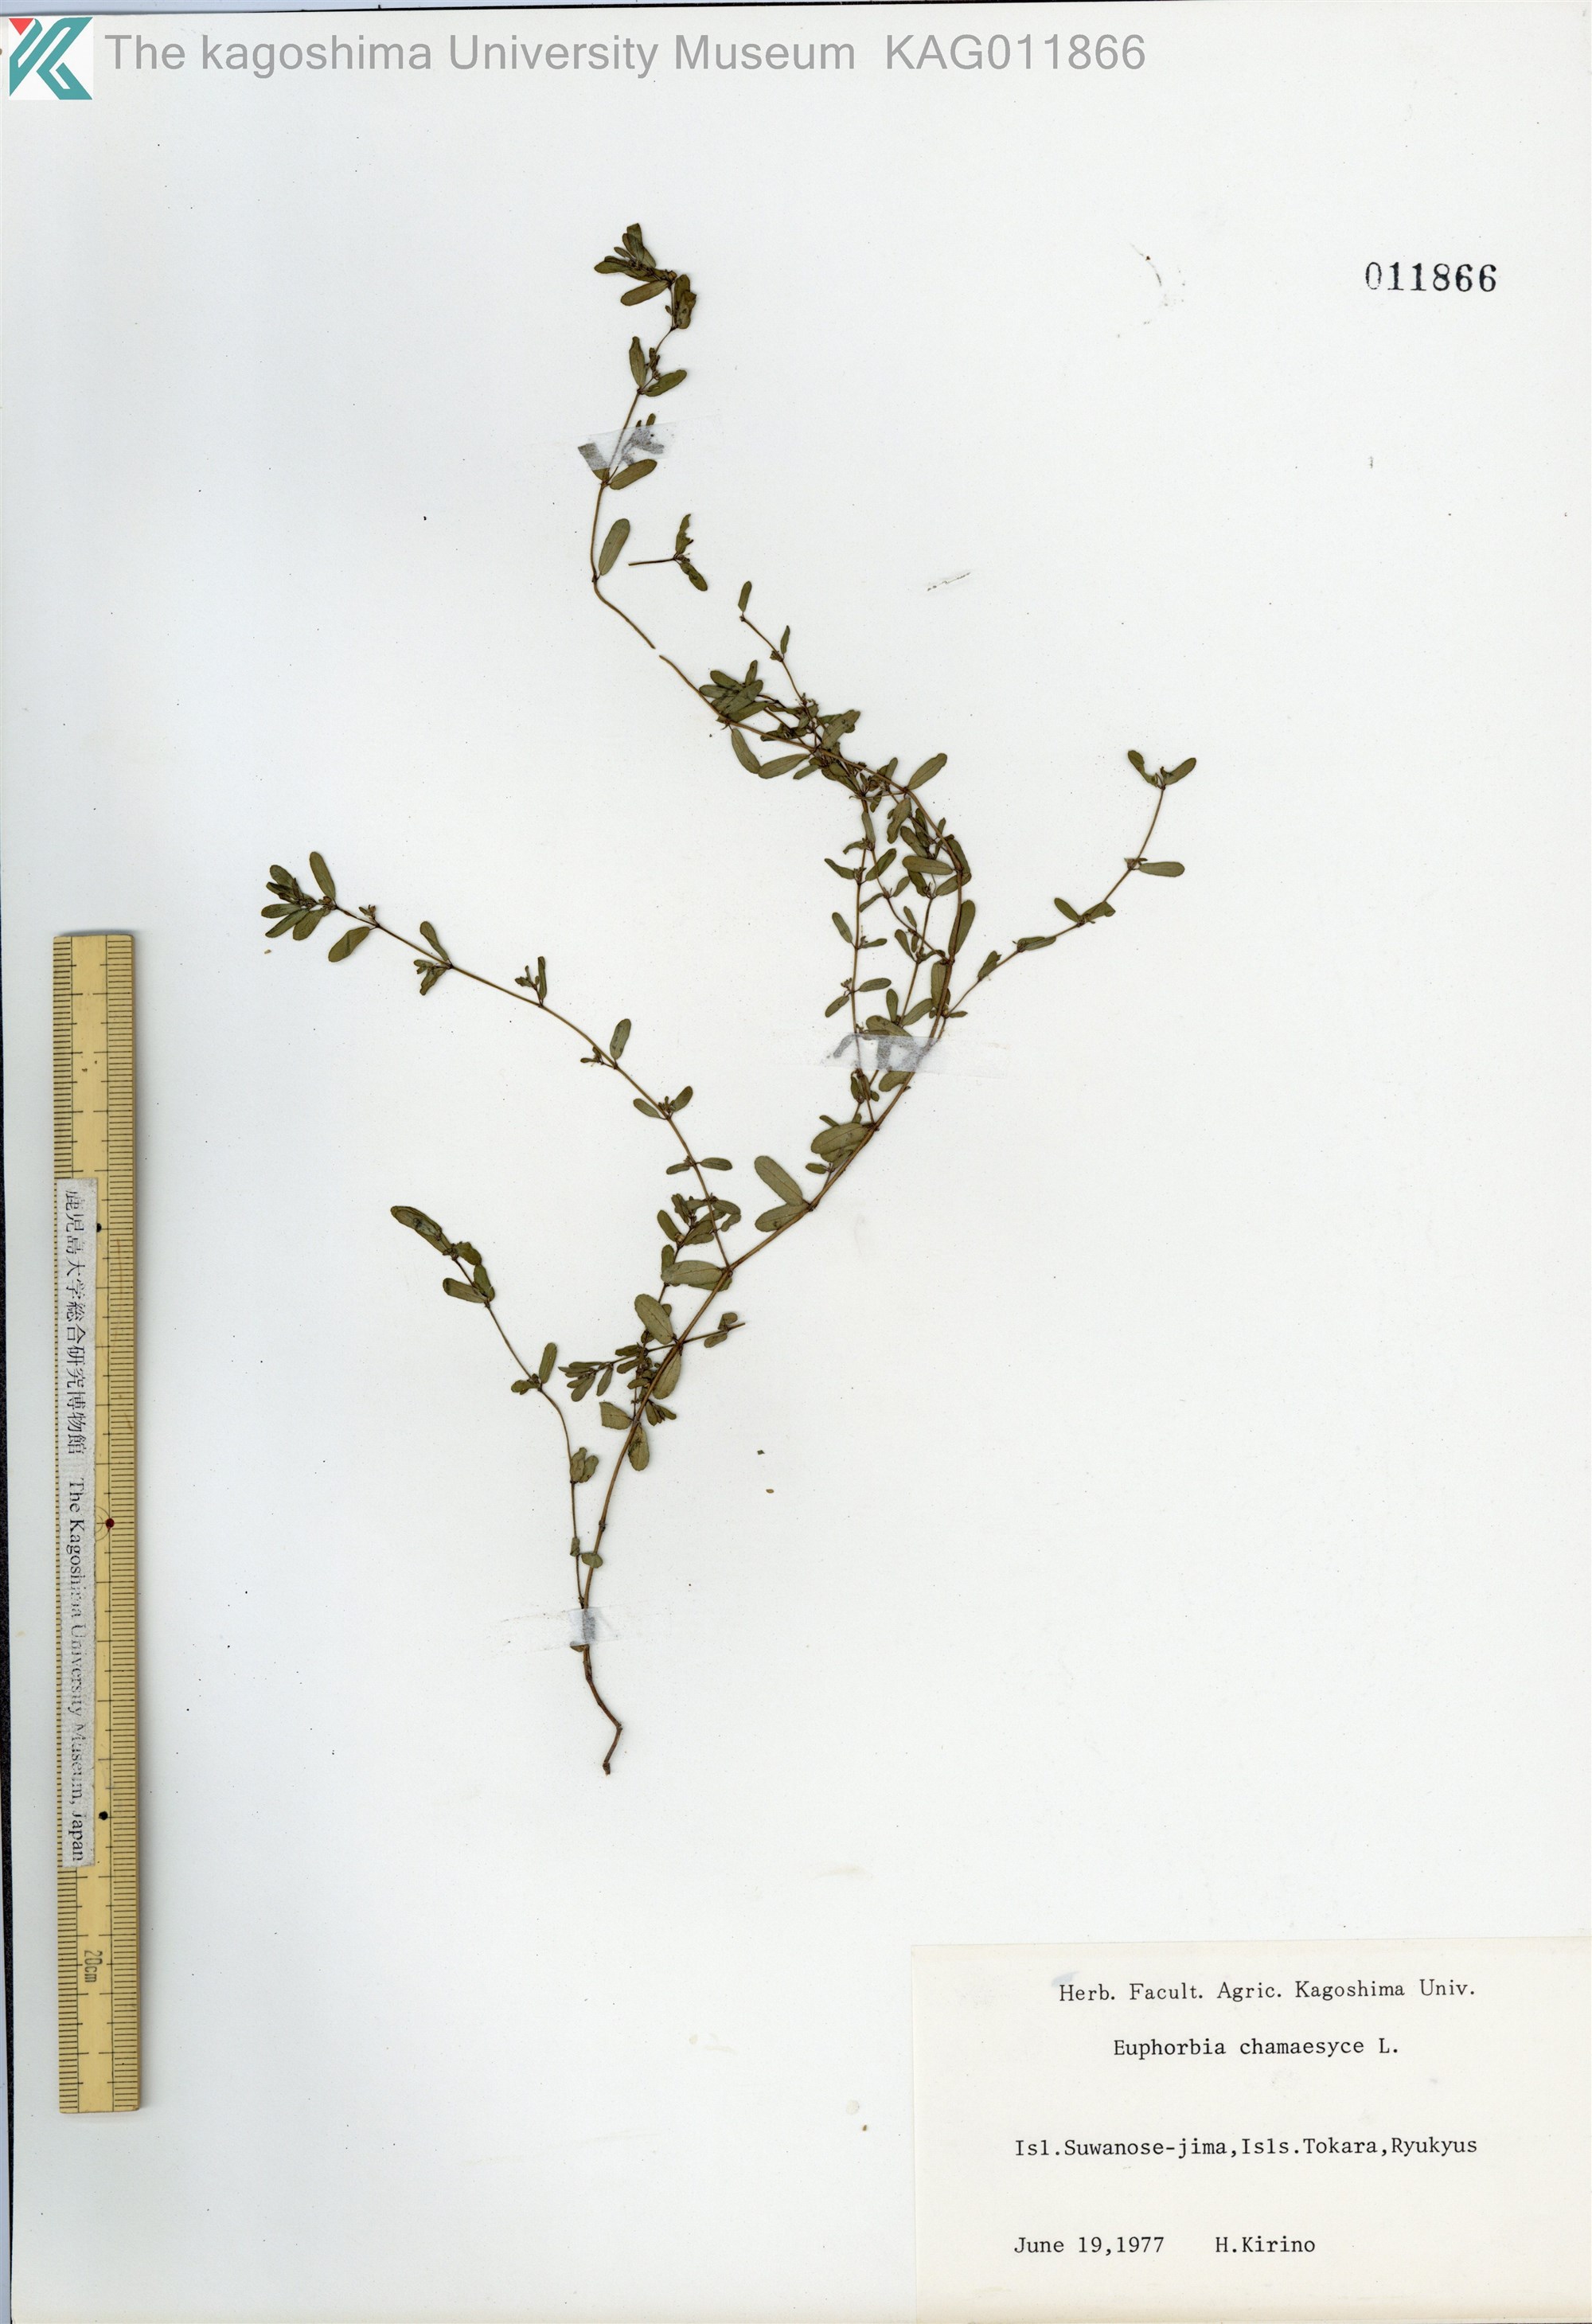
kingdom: Plantae
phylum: Tracheophyta
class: Magnoliopsida
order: Malpighiales
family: Euphorbiaceae
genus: Euphorbia
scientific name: Euphorbia prostrata
